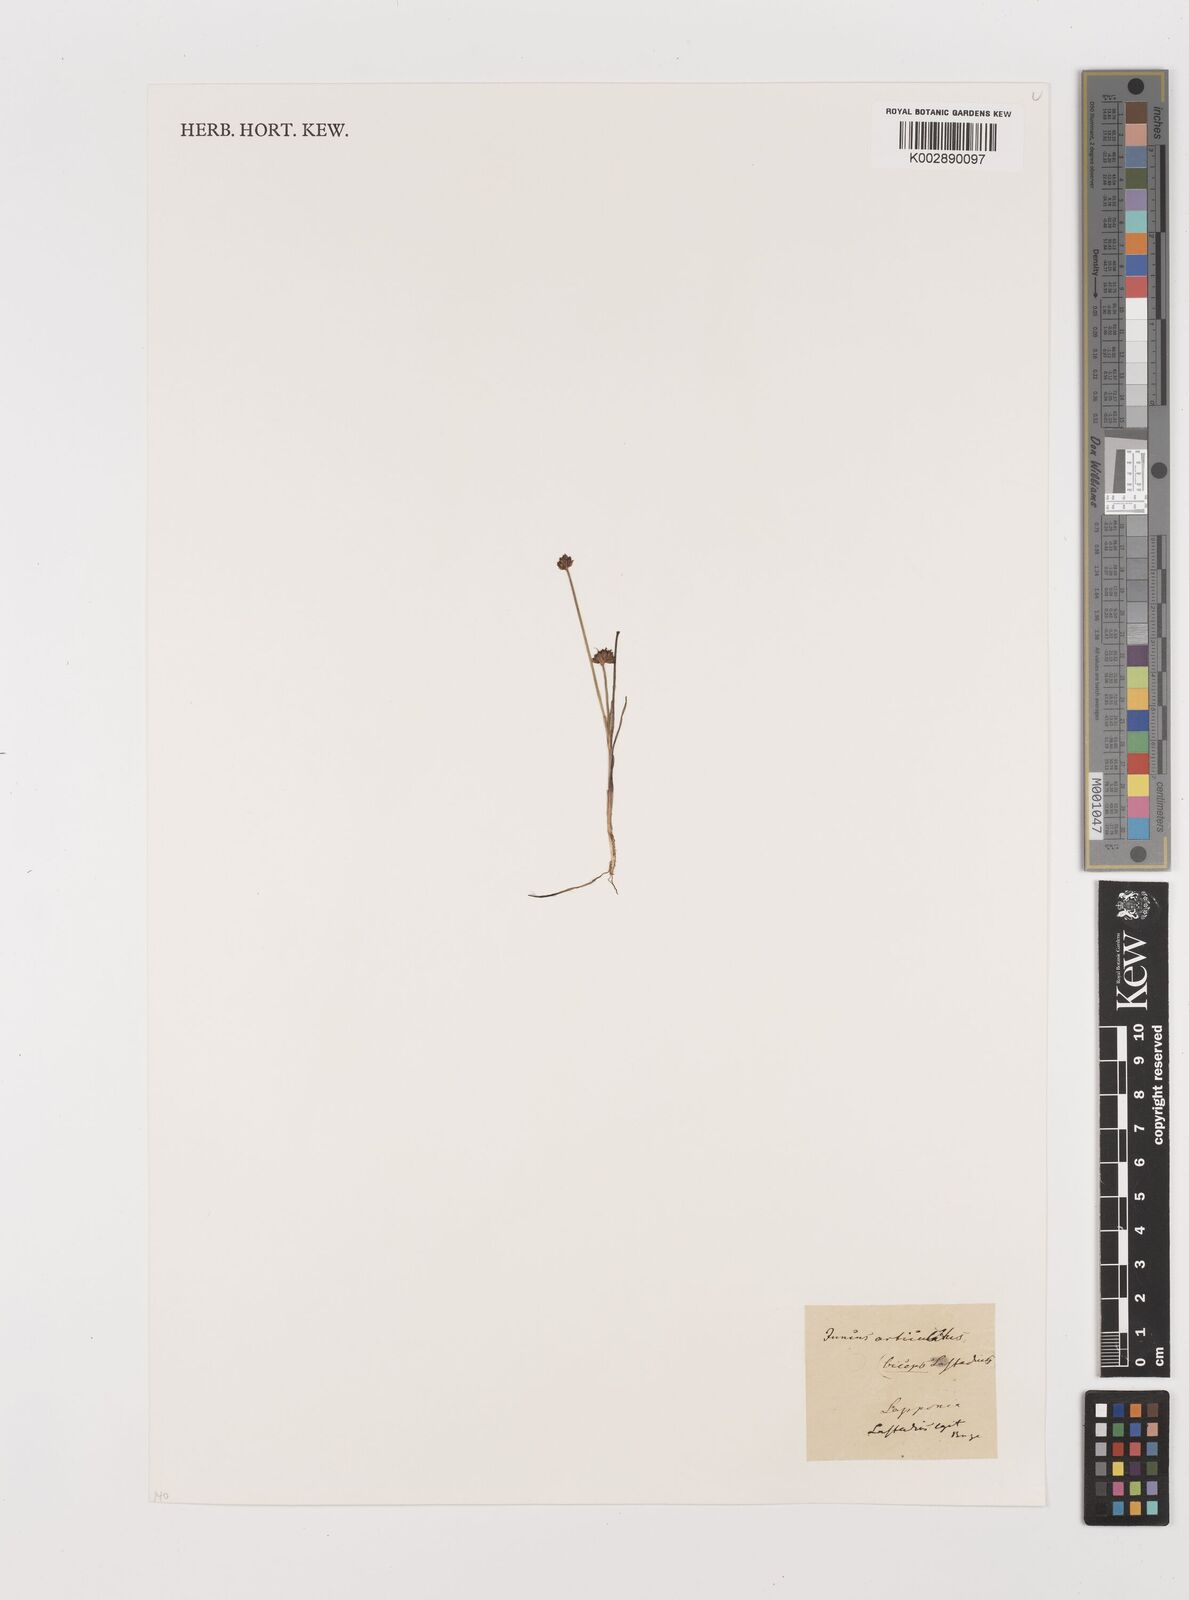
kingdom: Plantae
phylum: Tracheophyta
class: Liliopsida
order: Poales
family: Juncaceae
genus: Juncus
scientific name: Juncus articulatus
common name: Jointed rush
